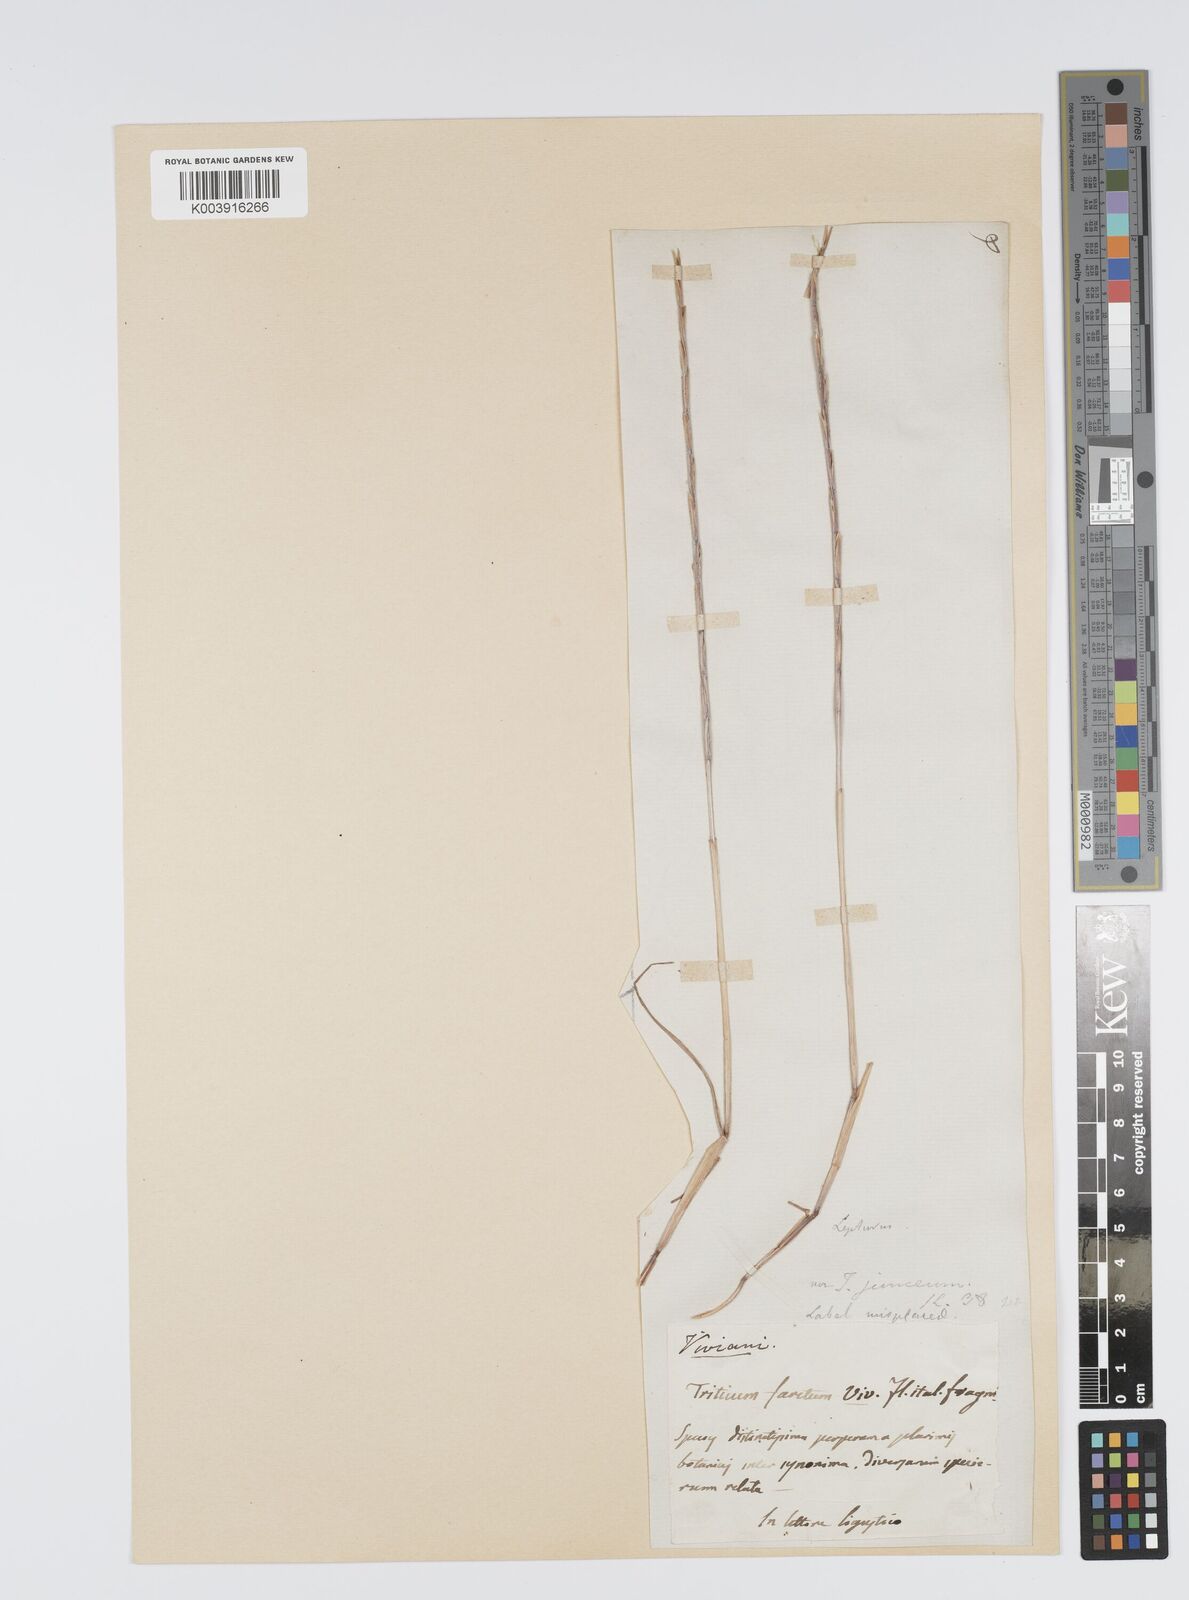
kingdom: Plantae
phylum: Tracheophyta
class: Liliopsida
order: Poales
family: Poaceae
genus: Lolium
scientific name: Lolium rigidum
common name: Wimmera ryegrass
